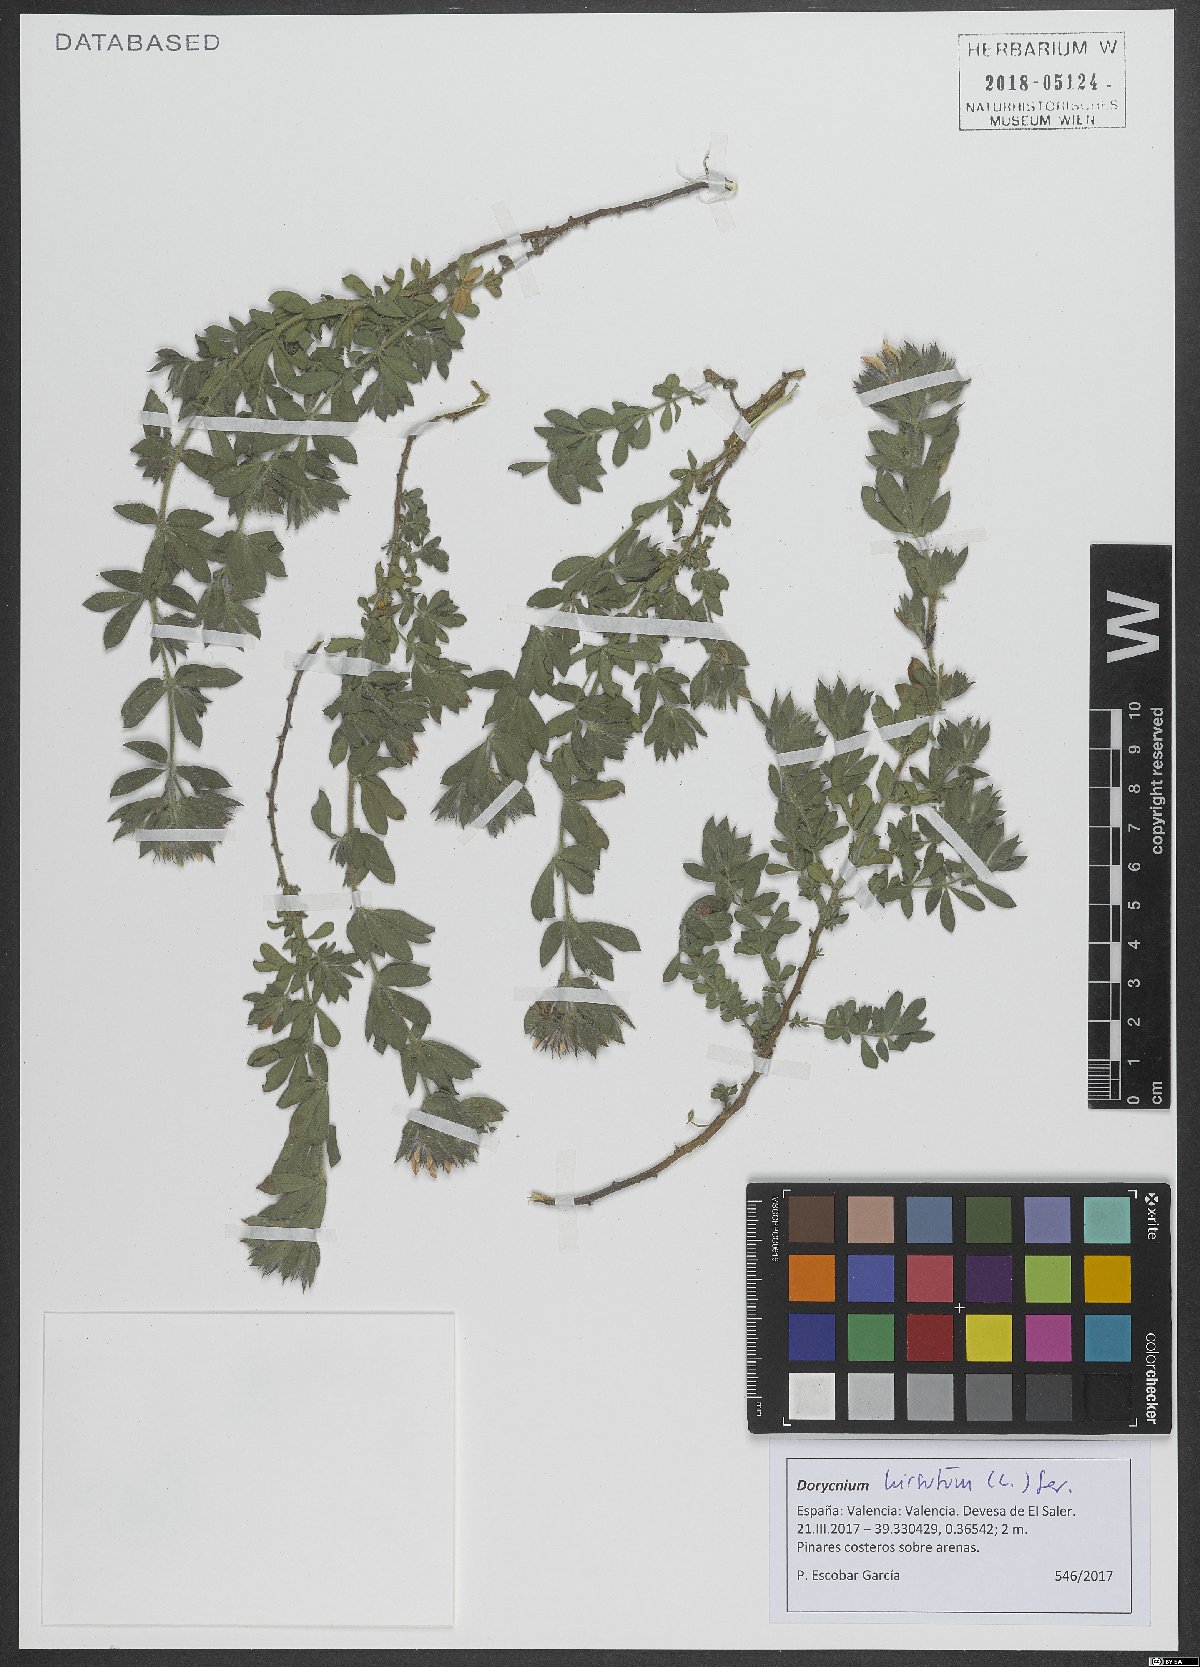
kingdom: Plantae
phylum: Tracheophyta
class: Magnoliopsida
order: Fabales
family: Fabaceae
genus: Lotus
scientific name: Lotus hirsutus
